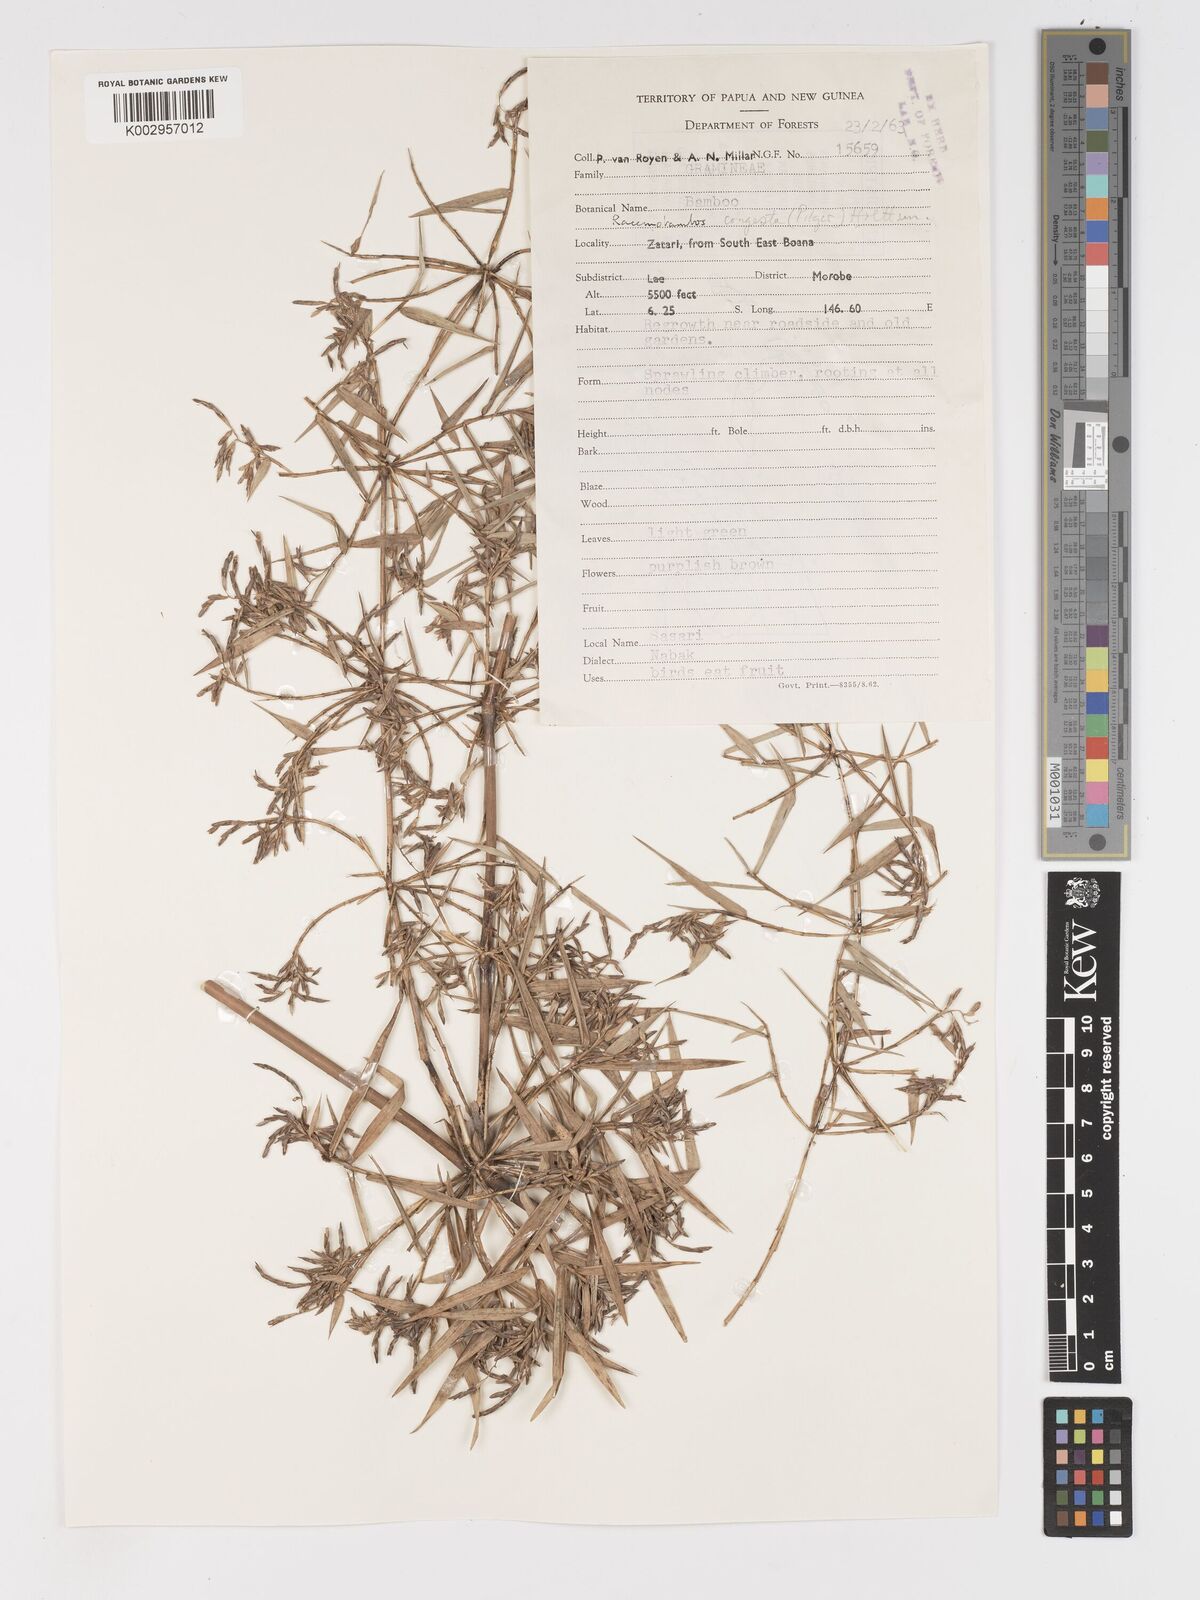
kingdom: Plantae
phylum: Tracheophyta
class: Liliopsida
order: Poales
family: Poaceae
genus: Racemobambos
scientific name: Racemobambos congesta
